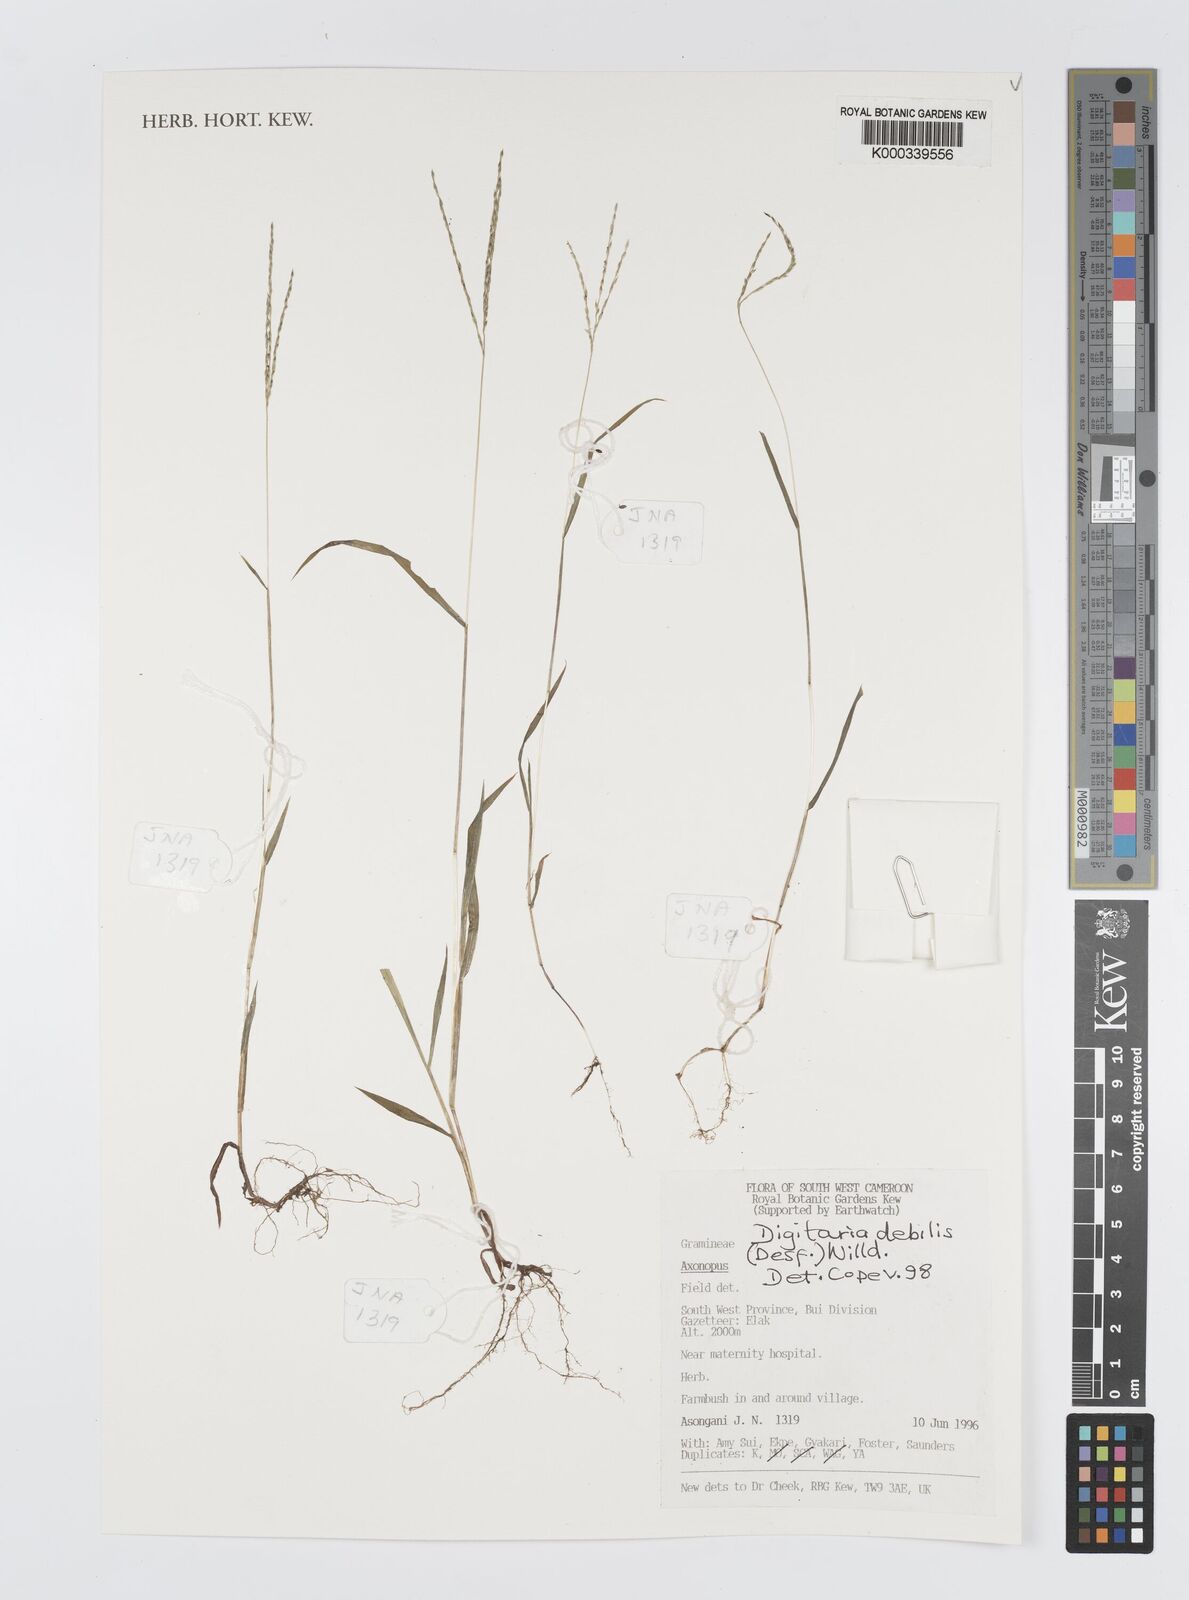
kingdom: Plantae
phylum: Tracheophyta
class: Liliopsida
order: Poales
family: Poaceae
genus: Digitaria
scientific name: Digitaria debilis
